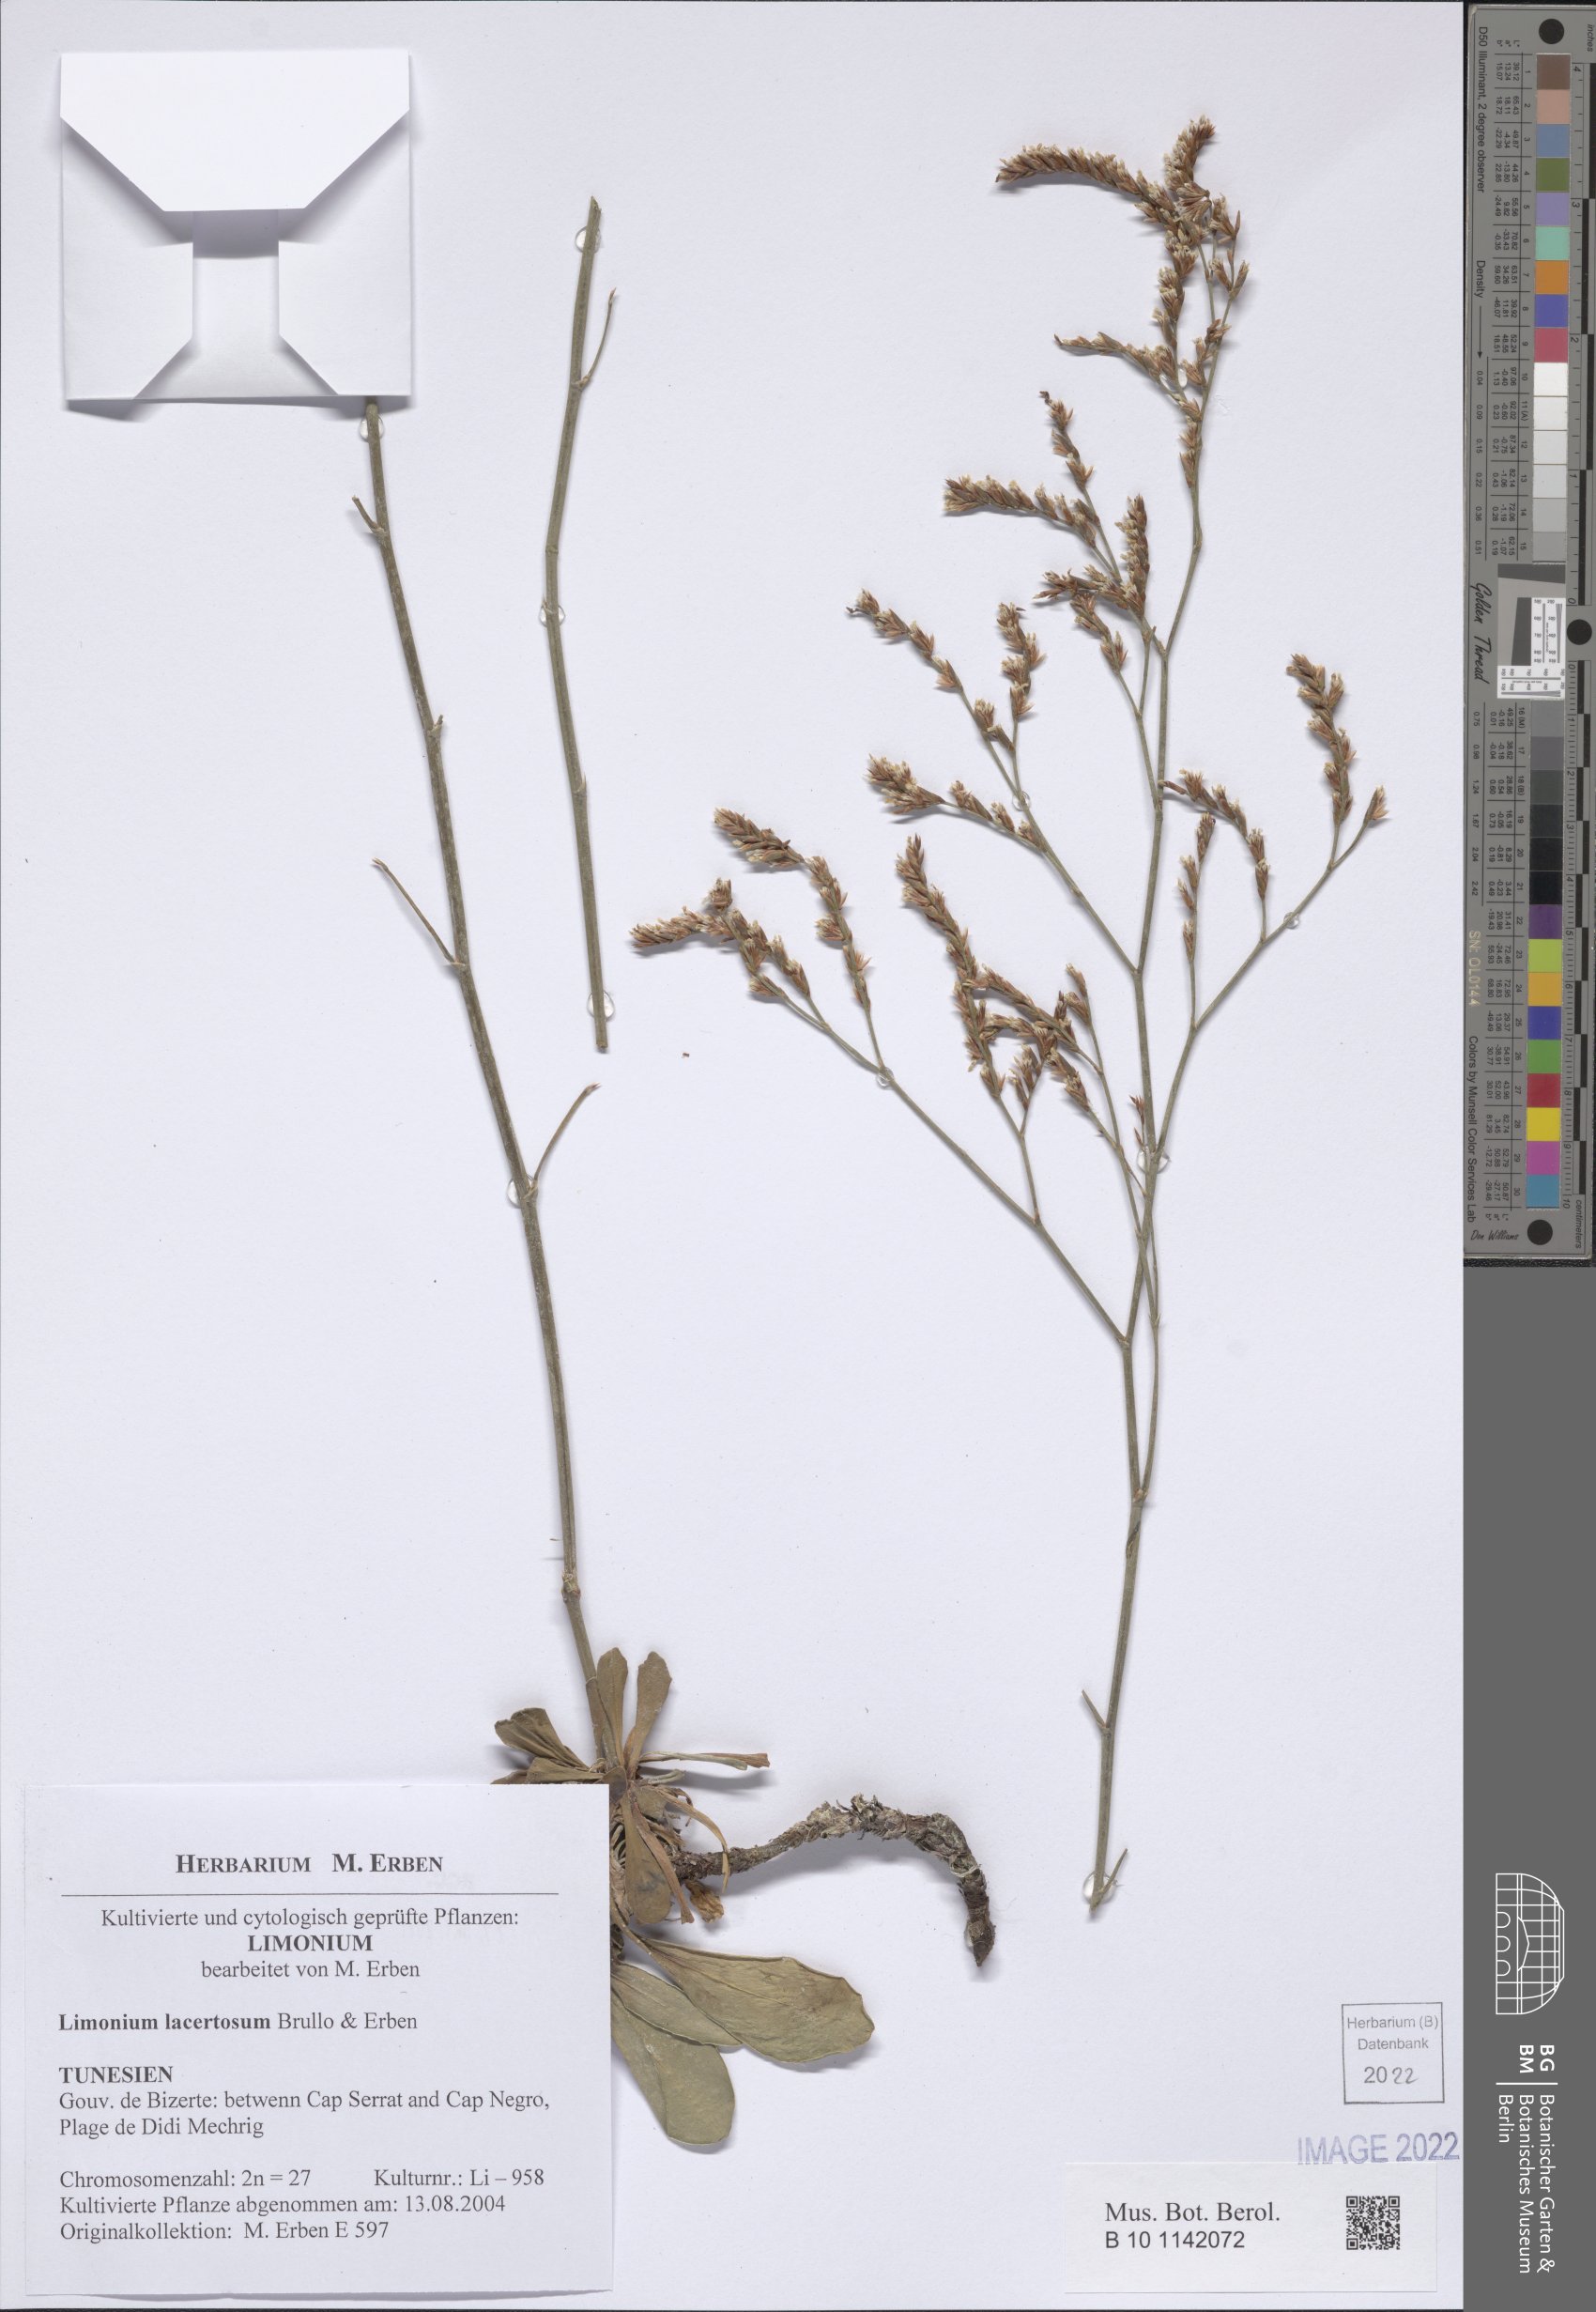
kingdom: Plantae
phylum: Tracheophyta
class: Magnoliopsida
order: Caryophyllales
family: Plumbaginaceae
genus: Limonium
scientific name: Limonium lacertosum
